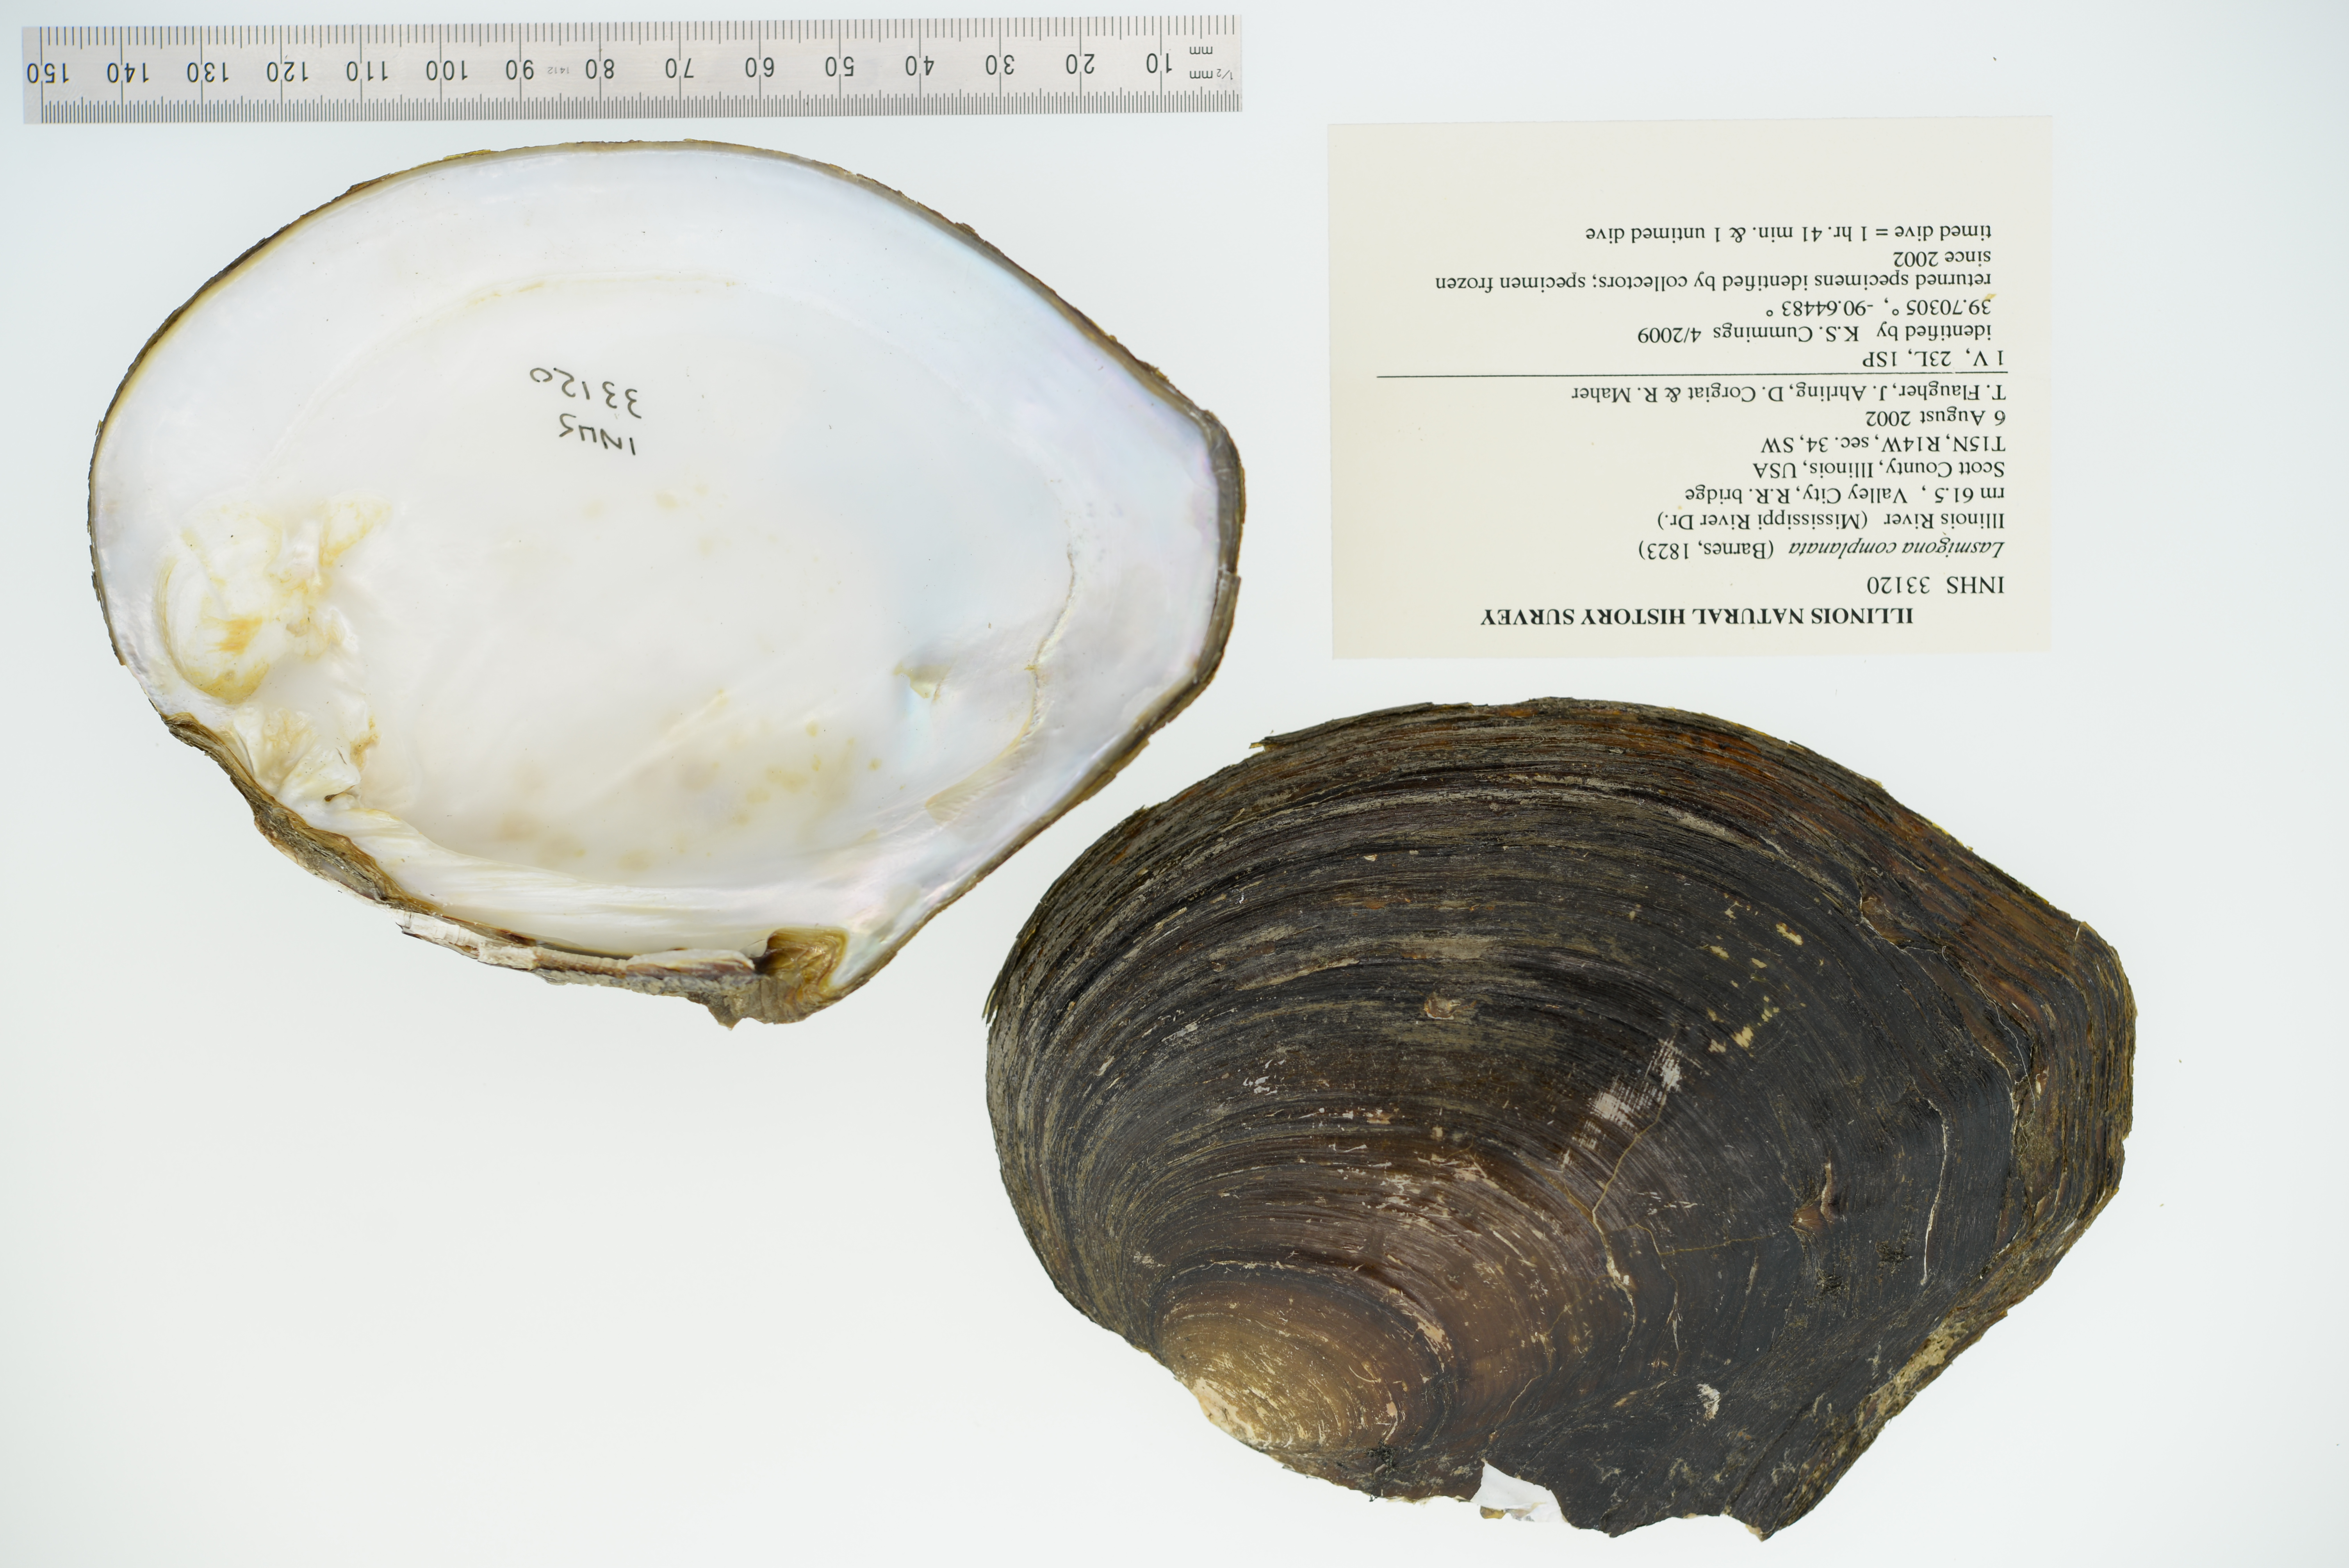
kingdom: Animalia
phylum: Mollusca
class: Bivalvia
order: Unionida
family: Unionidae
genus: Lasmigona
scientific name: Lasmigona complanata
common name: White heelsplitter
